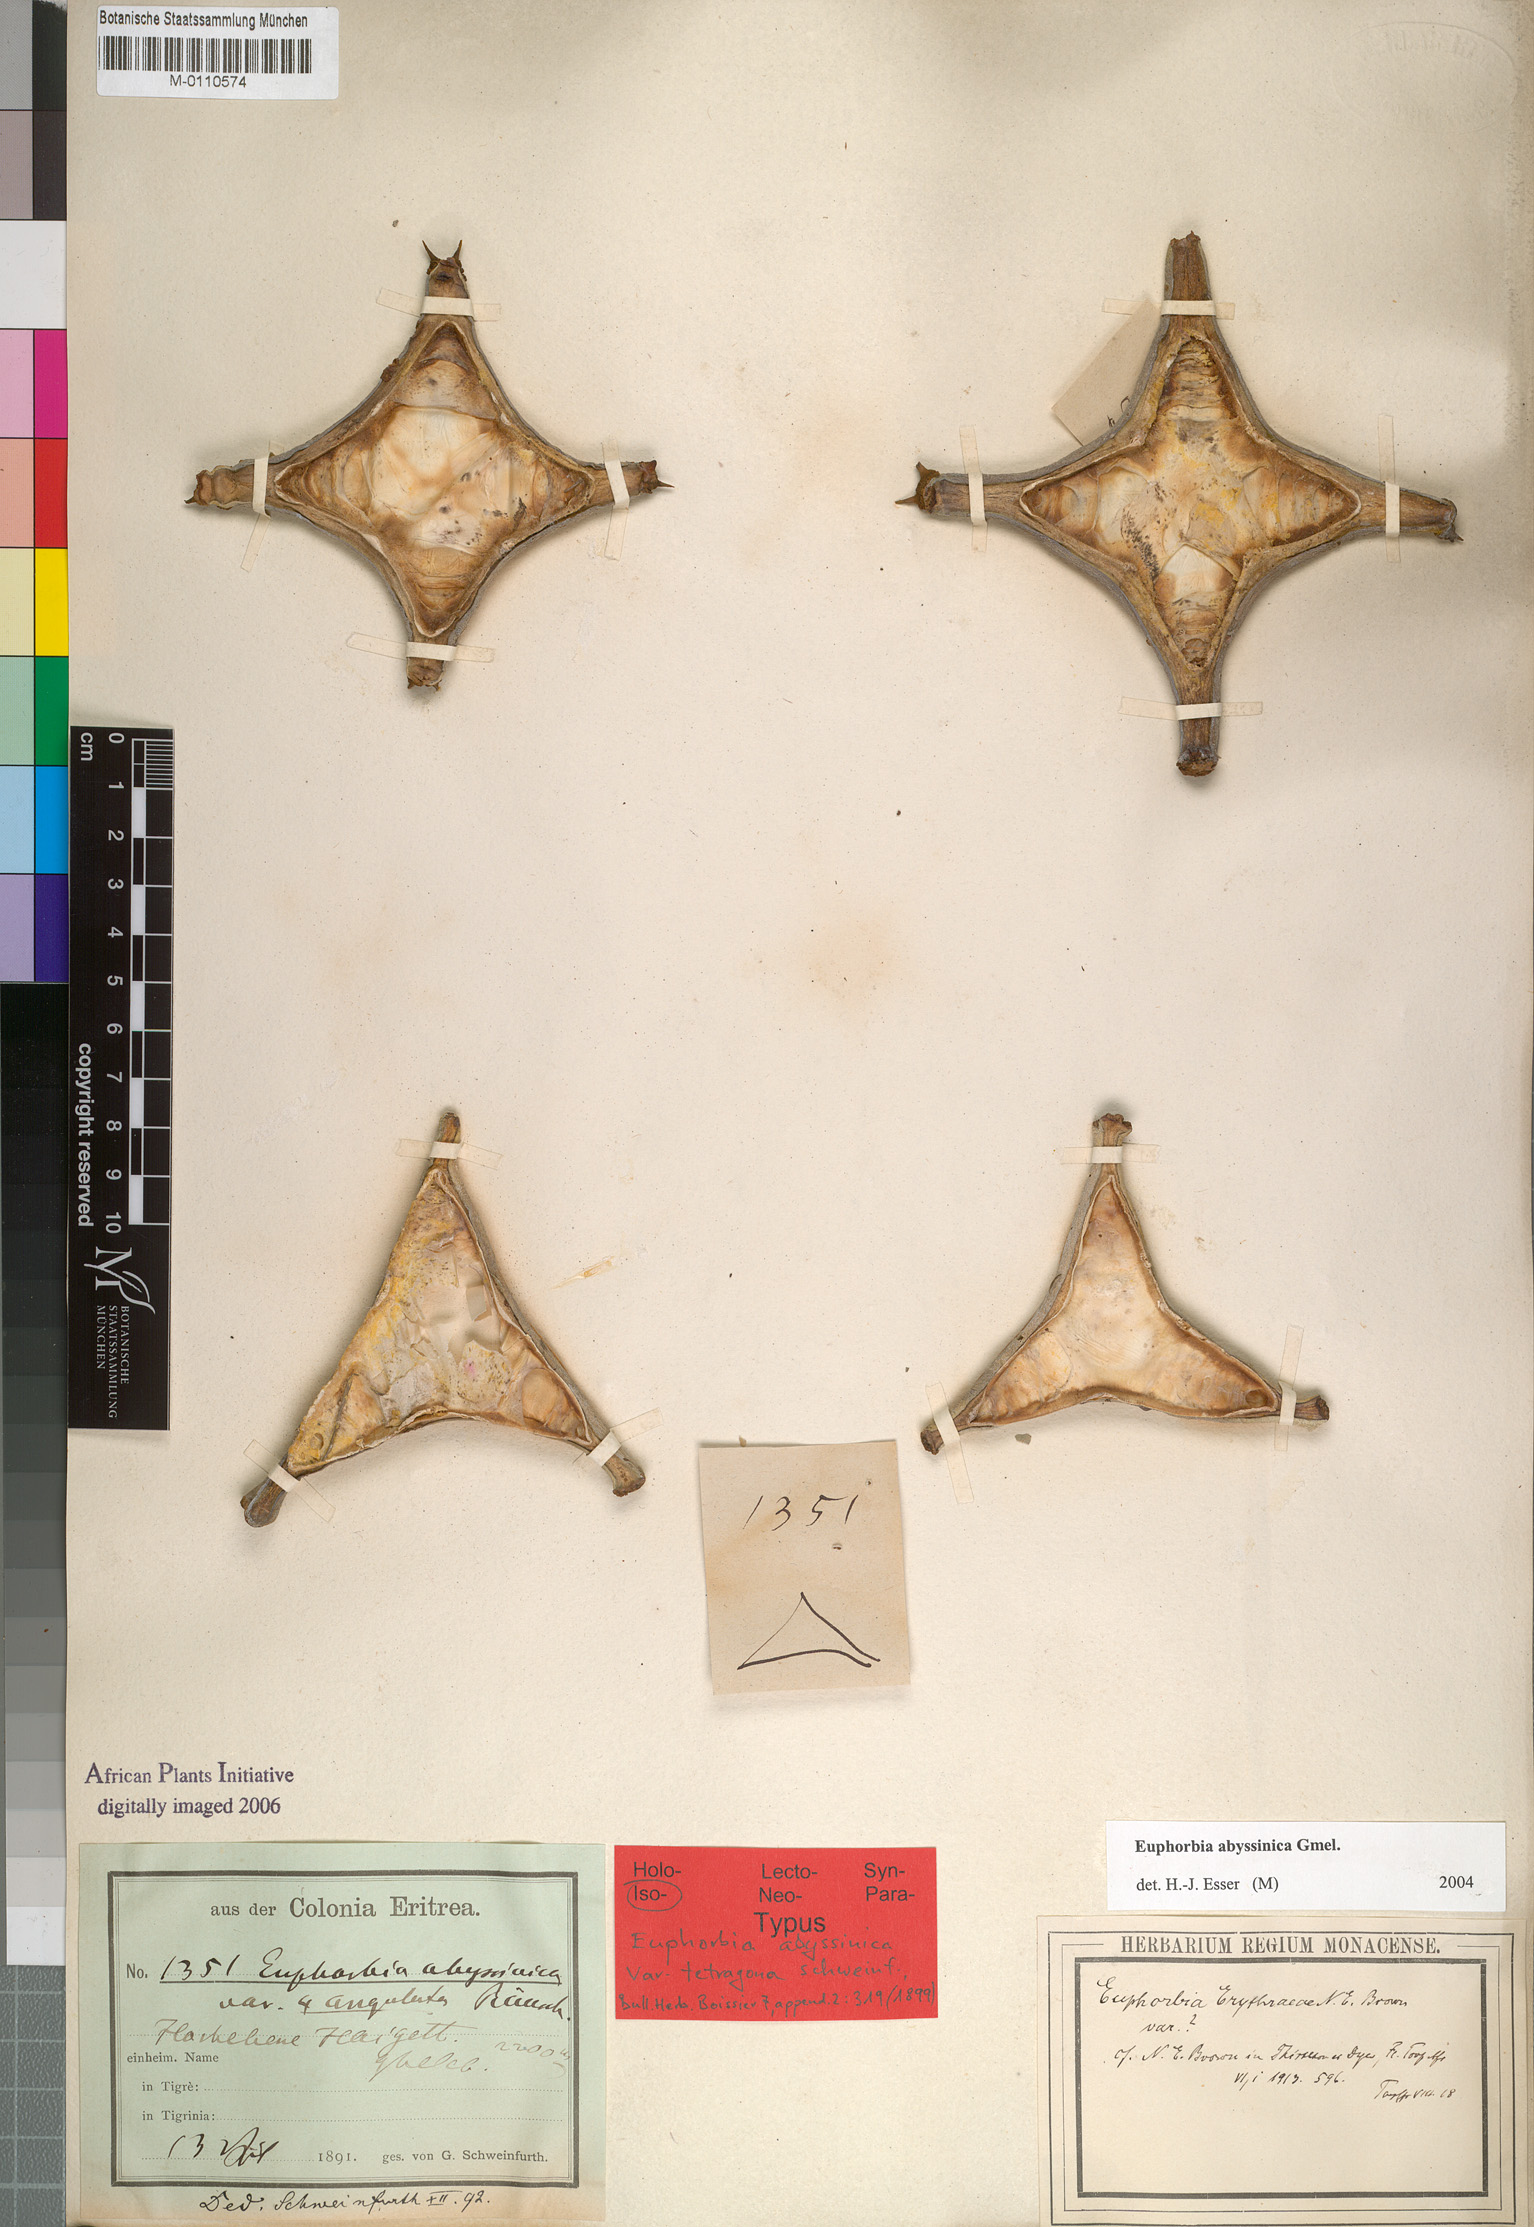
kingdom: Plantae
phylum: Tracheophyta
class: Magnoliopsida
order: Malpighiales
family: Euphorbiaceae
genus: Euphorbia
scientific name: Euphorbia abyssinica
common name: Abyssinian spurge
